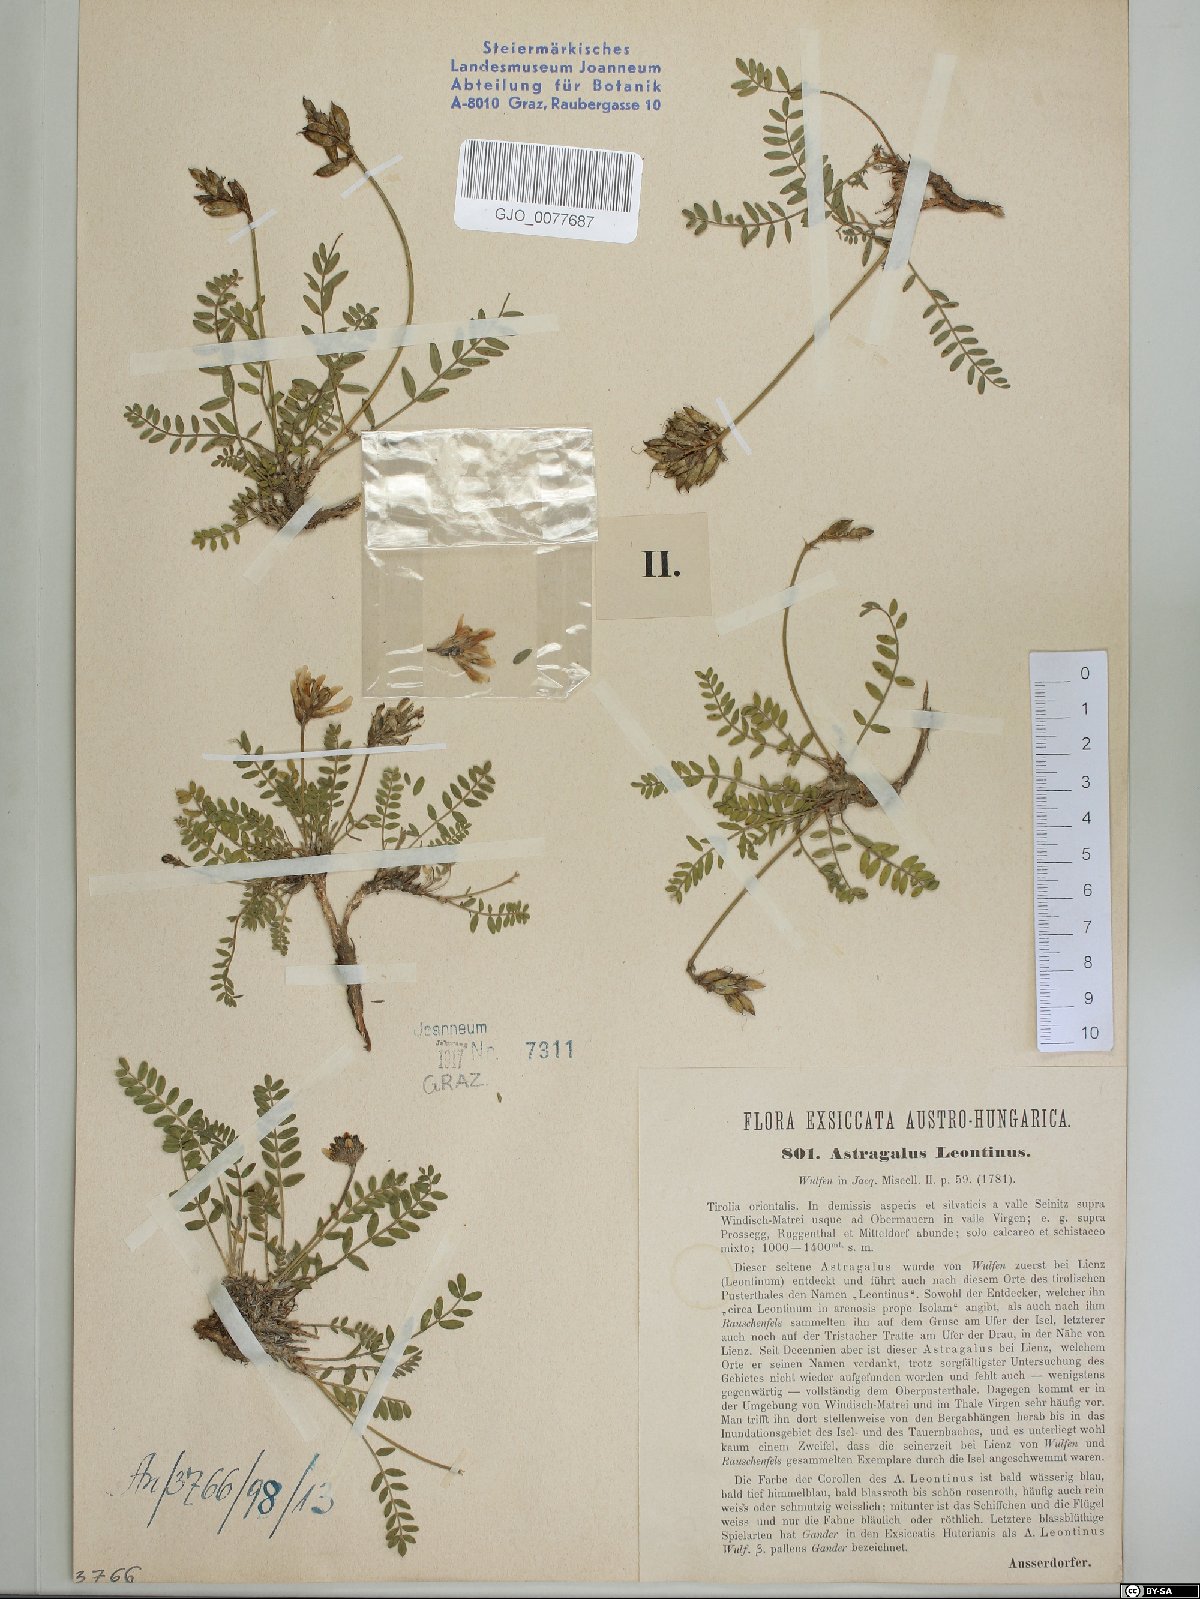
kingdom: Plantae
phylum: Tracheophyta
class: Magnoliopsida
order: Fabales
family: Fabaceae
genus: Astragalus
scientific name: Astragalus leontinus
